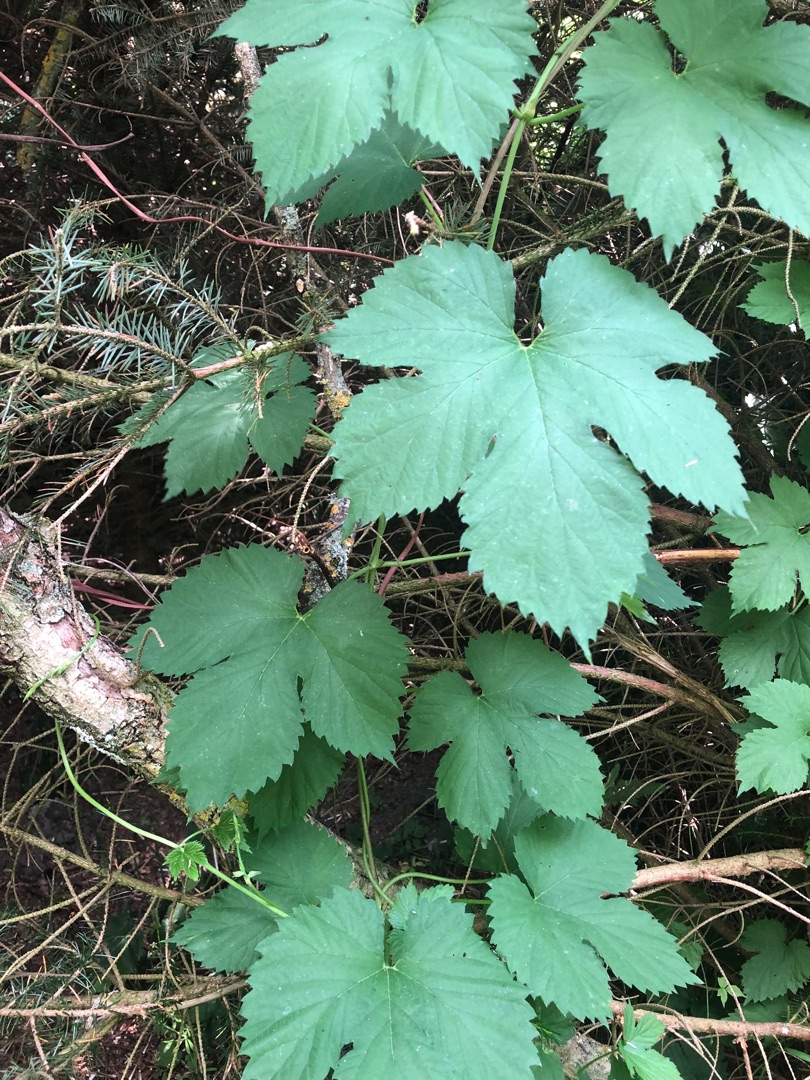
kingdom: Plantae
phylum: Tracheophyta
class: Magnoliopsida
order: Rosales
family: Cannabaceae
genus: Humulus
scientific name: Humulus lupulus
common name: Humle
